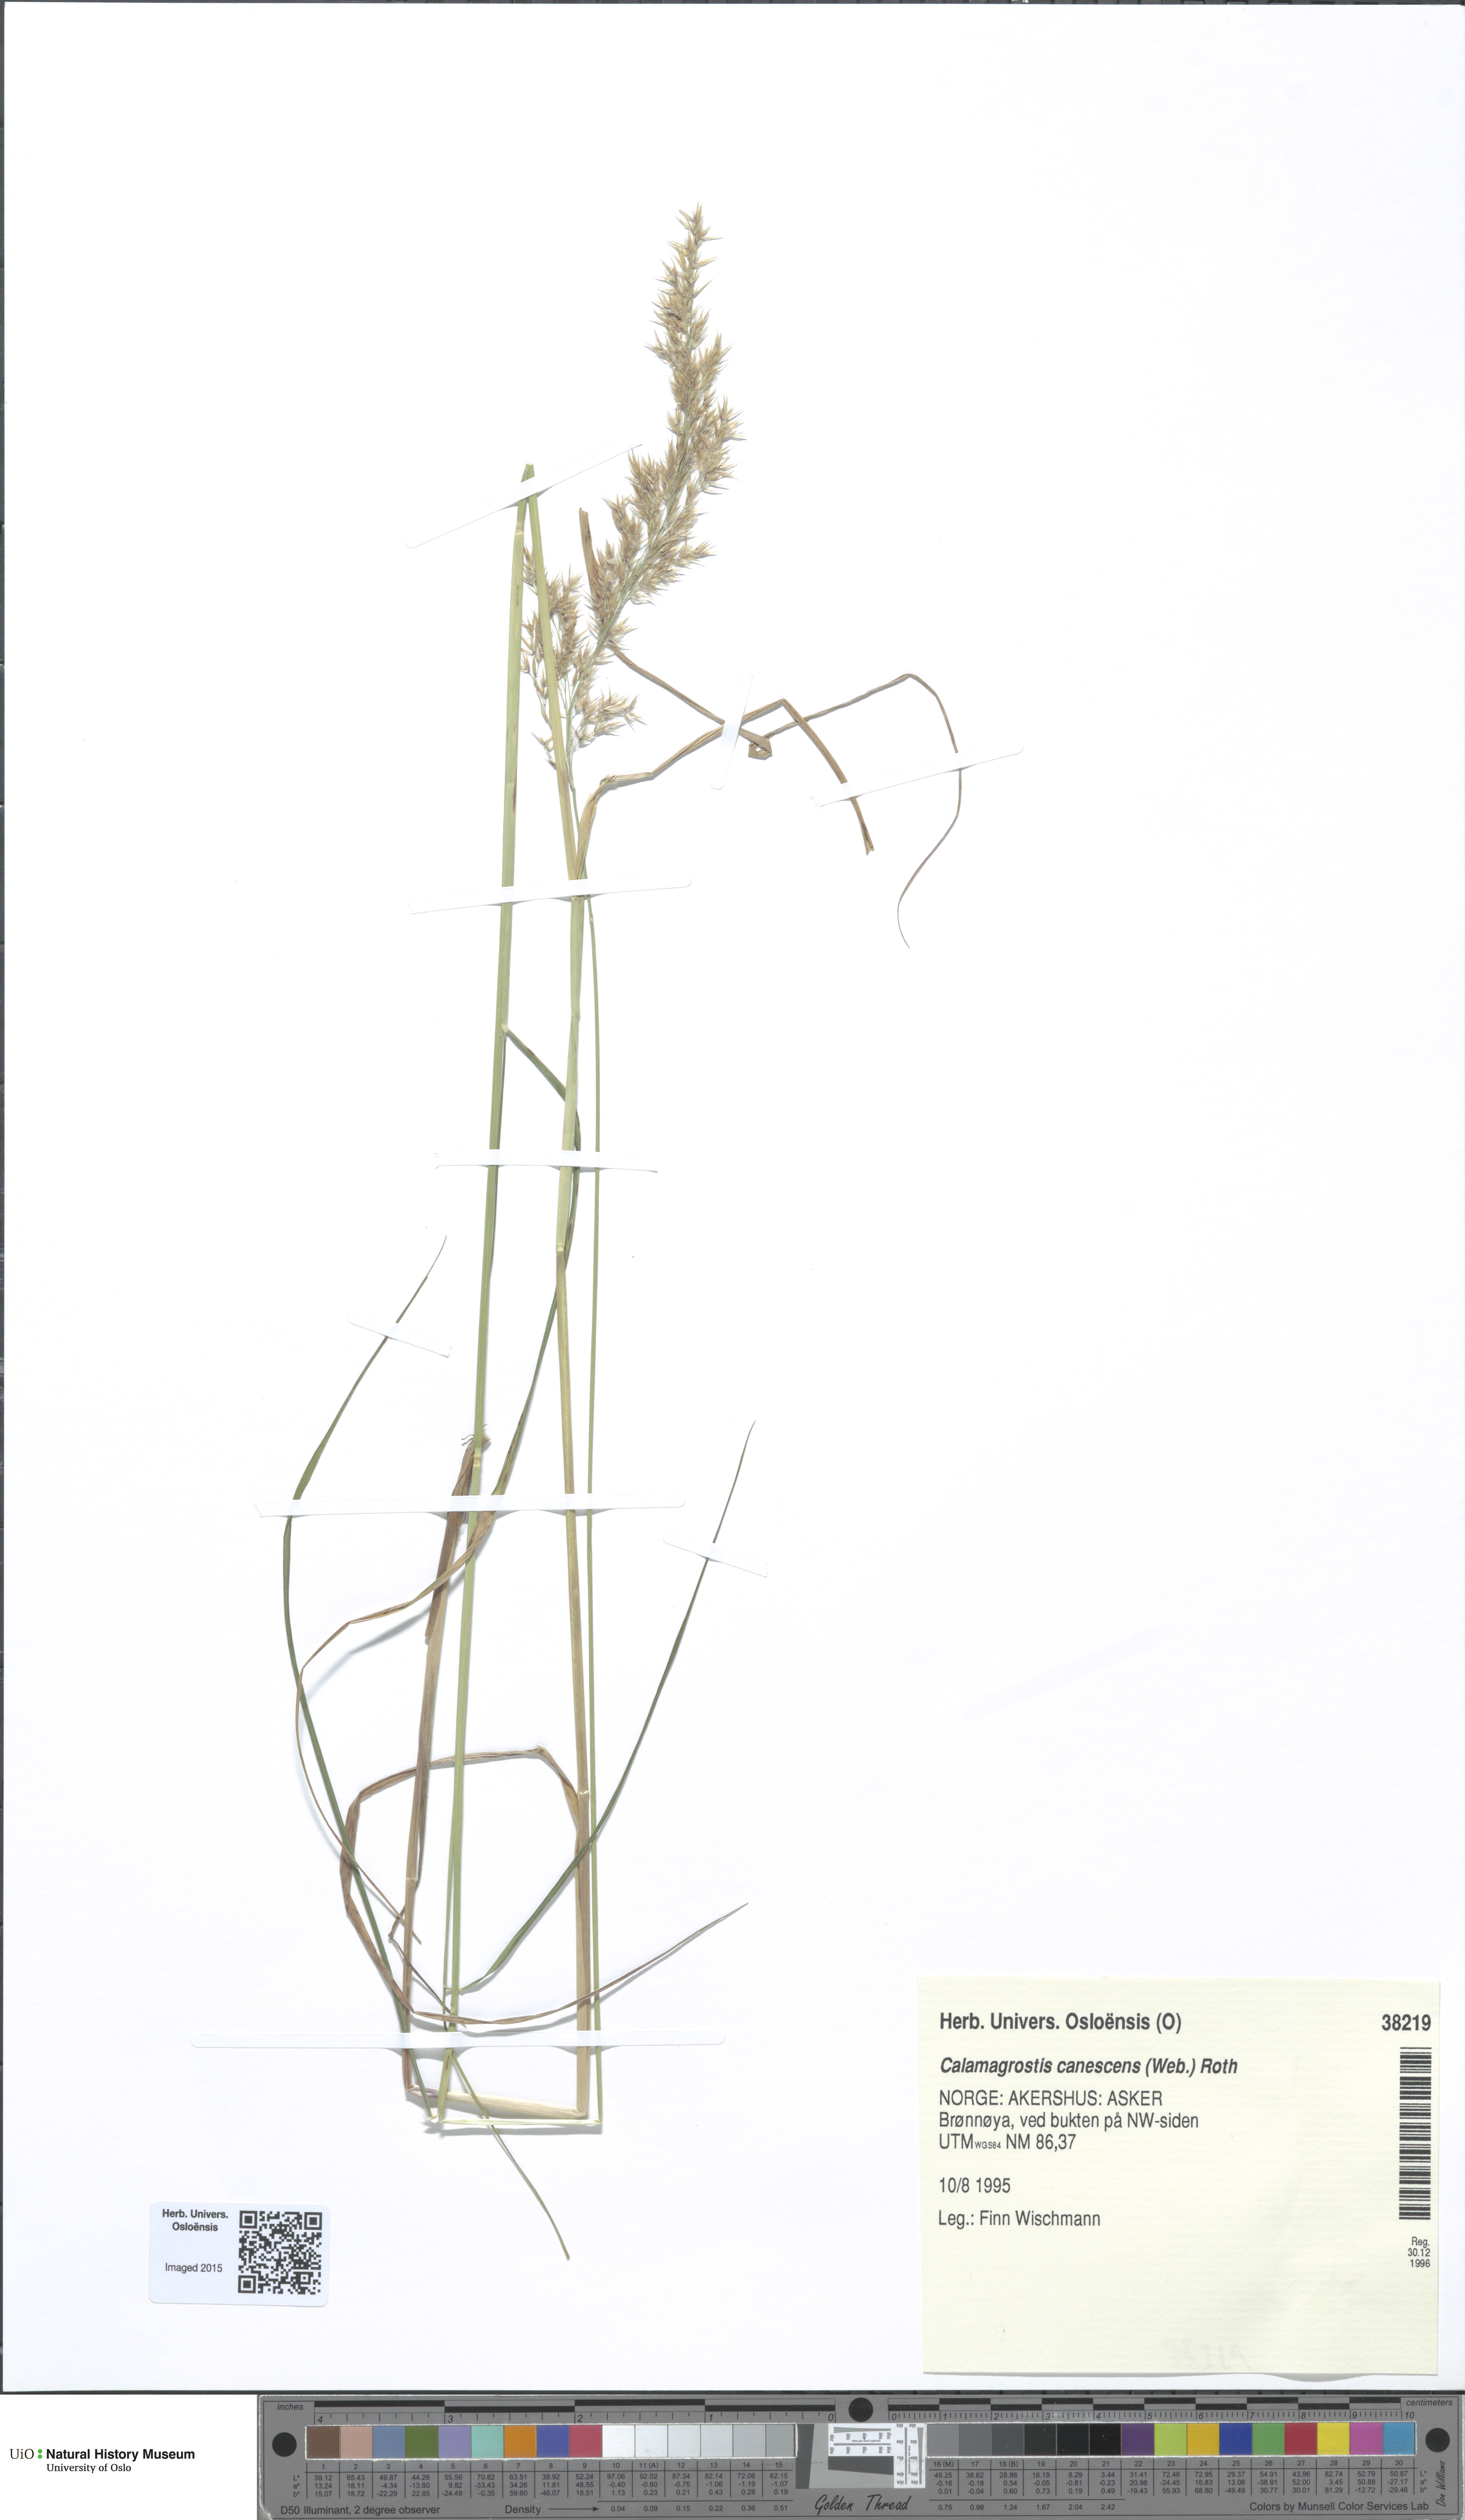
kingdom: Plantae
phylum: Tracheophyta
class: Liliopsida
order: Poales
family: Poaceae
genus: Calamagrostis
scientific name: Calamagrostis canescens
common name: Purple small-reed
